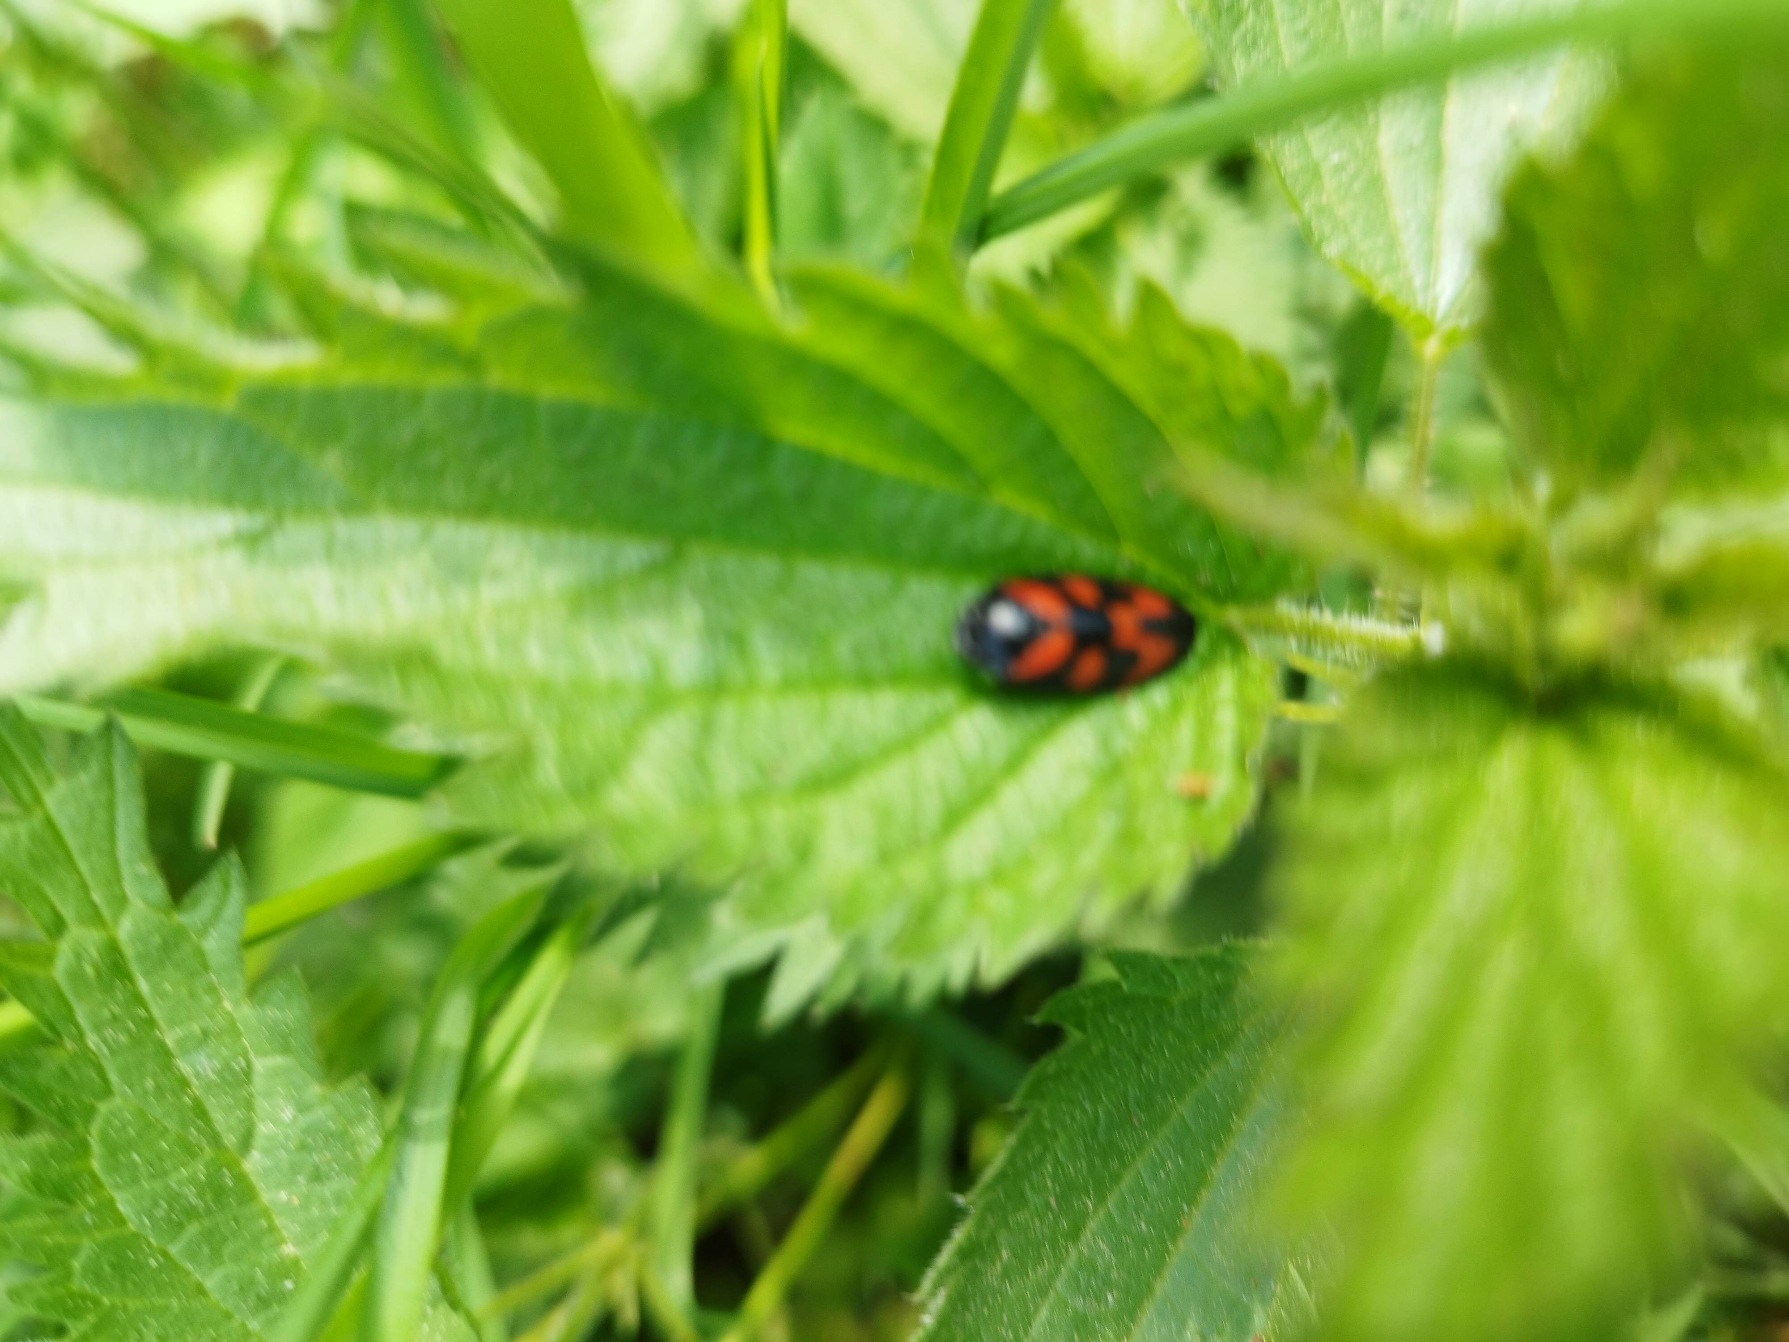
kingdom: Animalia
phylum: Arthropoda
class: Insecta
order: Hemiptera
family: Cercopidae
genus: Cercopis
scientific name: Cercopis vulnerata
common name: Blodcikade
